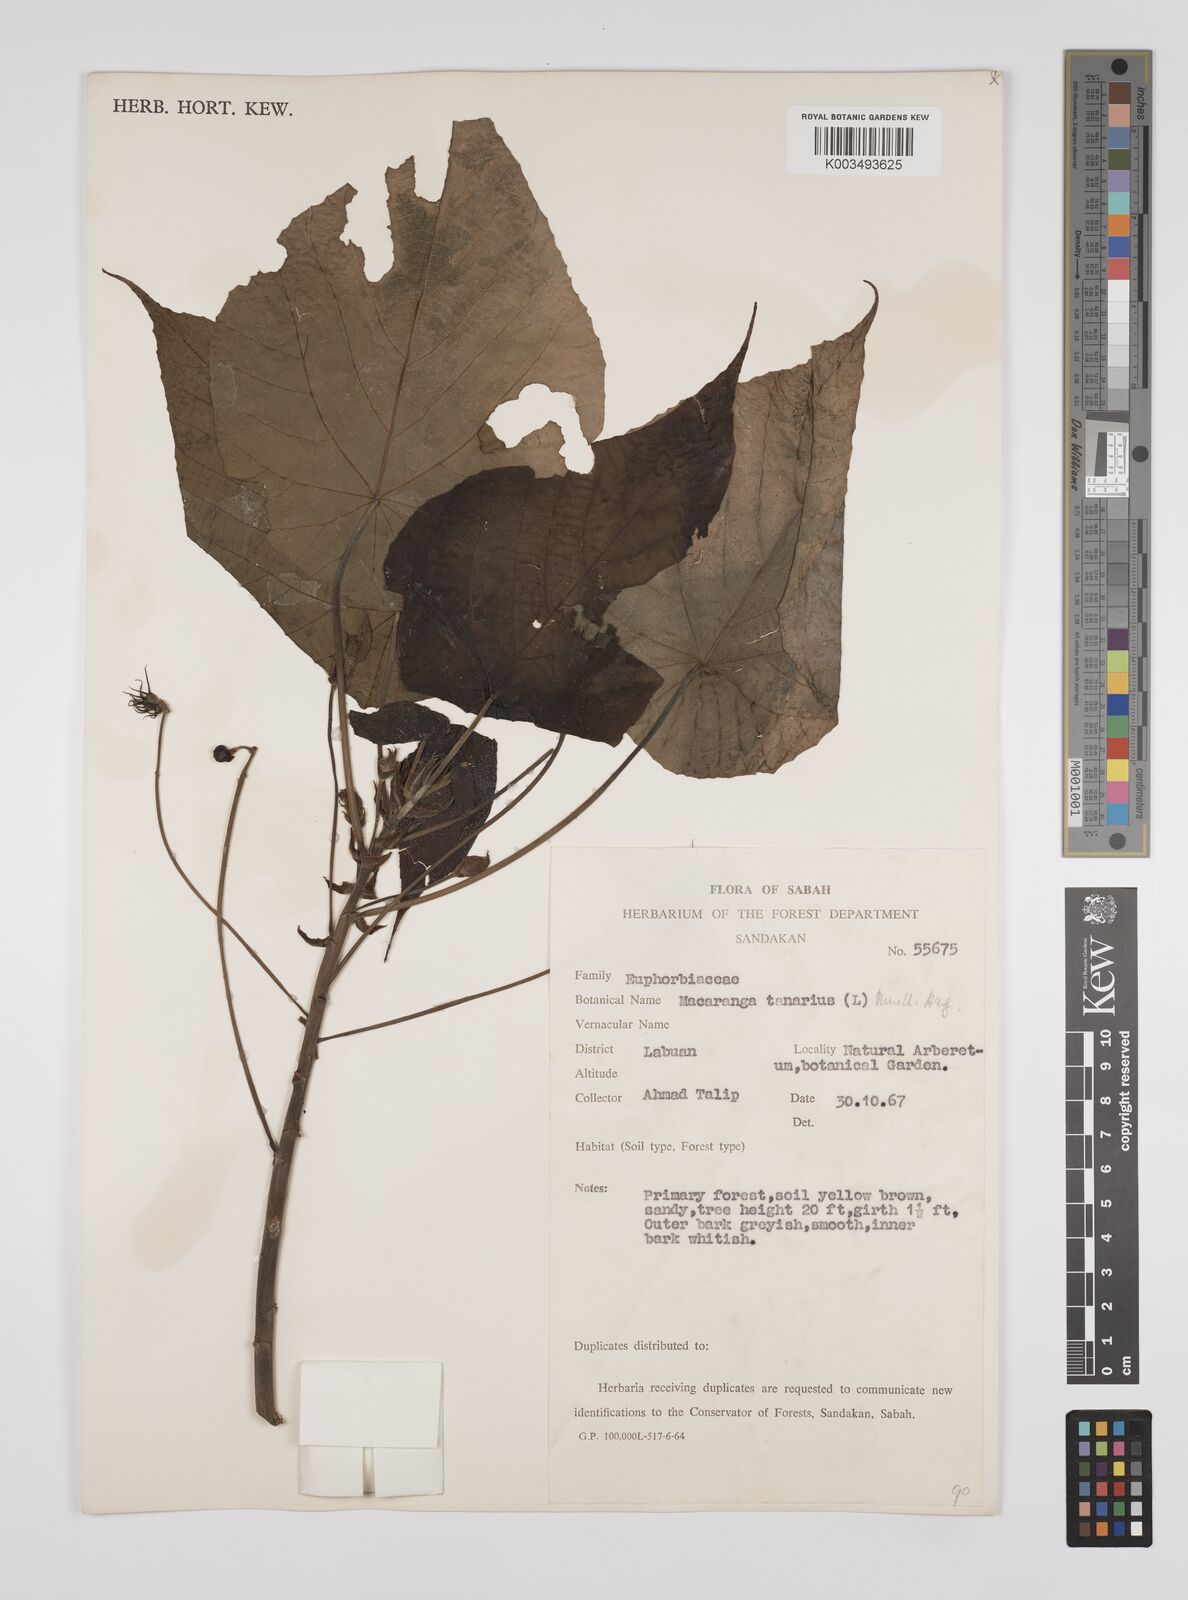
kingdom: Plantae
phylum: Tracheophyta
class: Magnoliopsida
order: Malpighiales
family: Euphorbiaceae
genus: Macaranga
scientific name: Macaranga tanarius
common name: Parasol leaf tree
